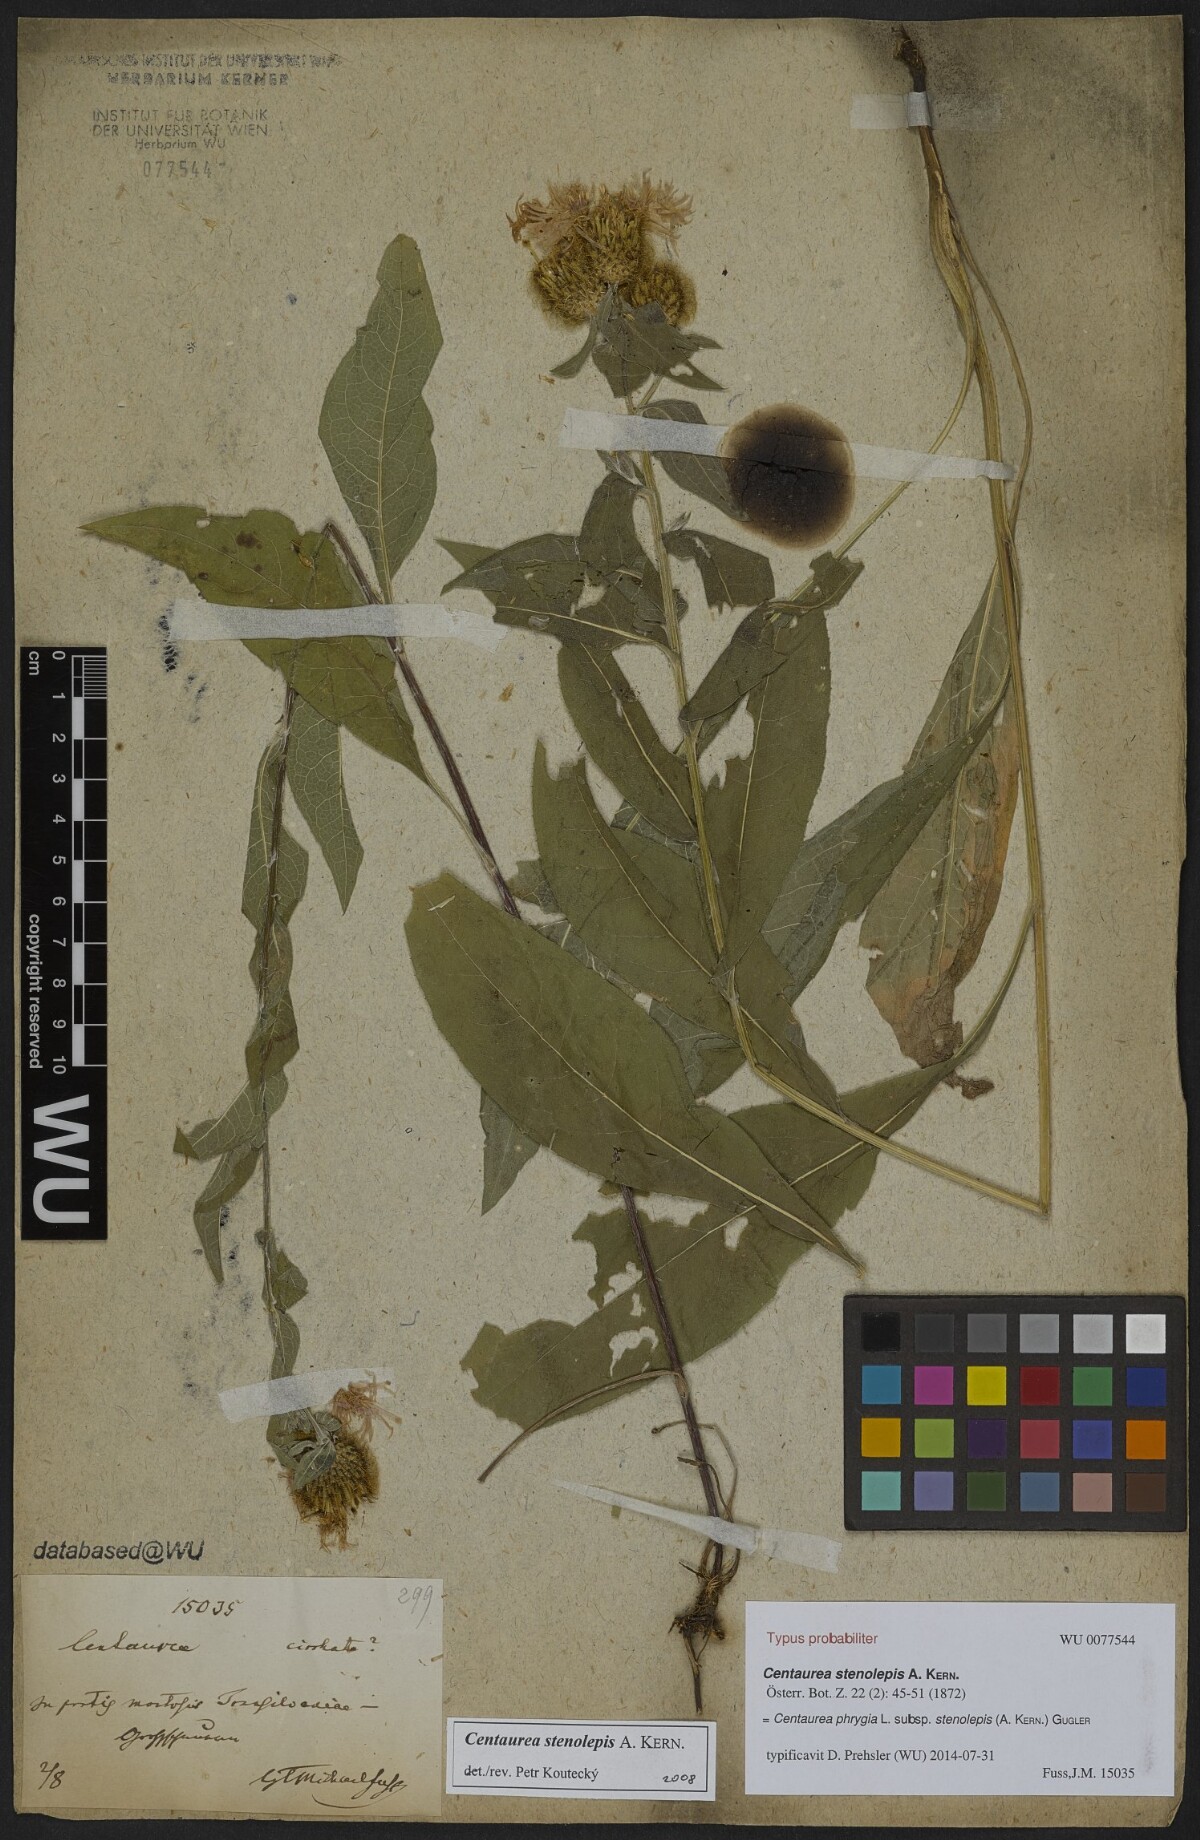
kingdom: Plantae
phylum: Tracheophyta
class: Magnoliopsida
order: Asterales
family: Asteraceae
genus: Centaurea
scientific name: Centaurea stenolepis
